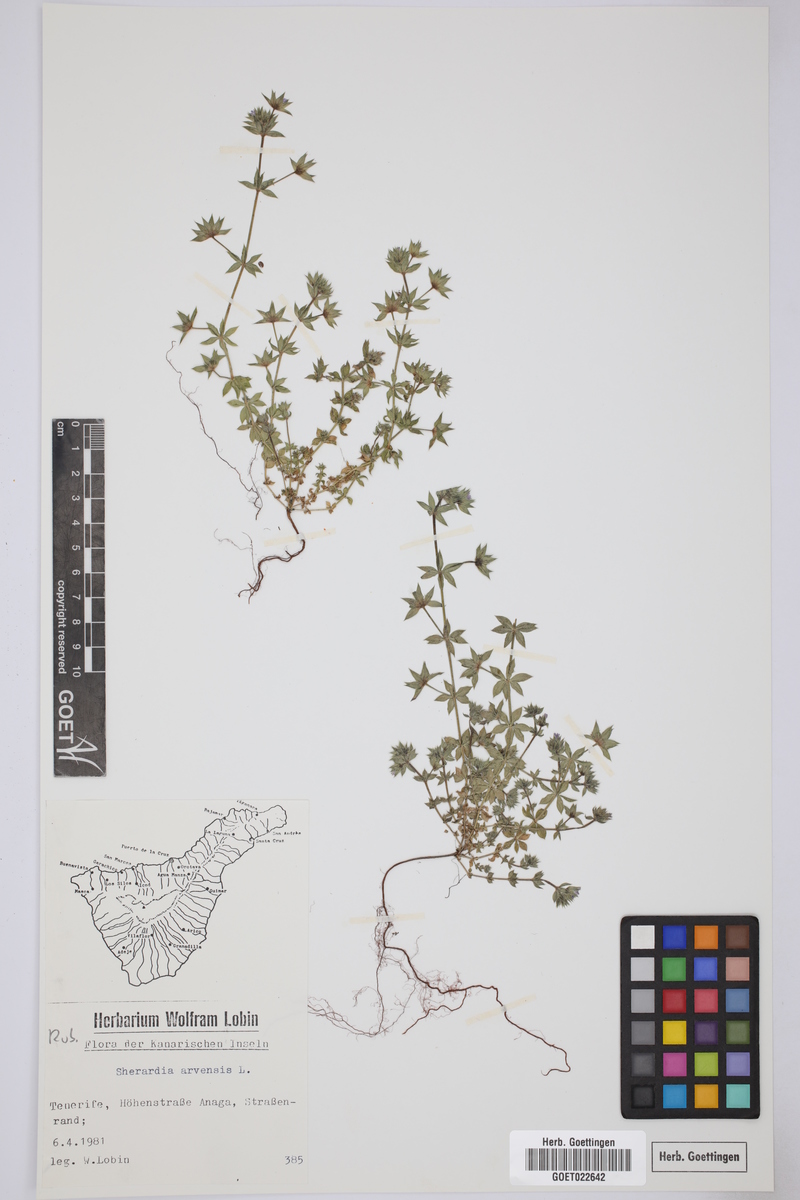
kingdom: Plantae
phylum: Tracheophyta
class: Magnoliopsida
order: Gentianales
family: Rubiaceae
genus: Sherardia
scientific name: Sherardia arvensis
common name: Field madder
